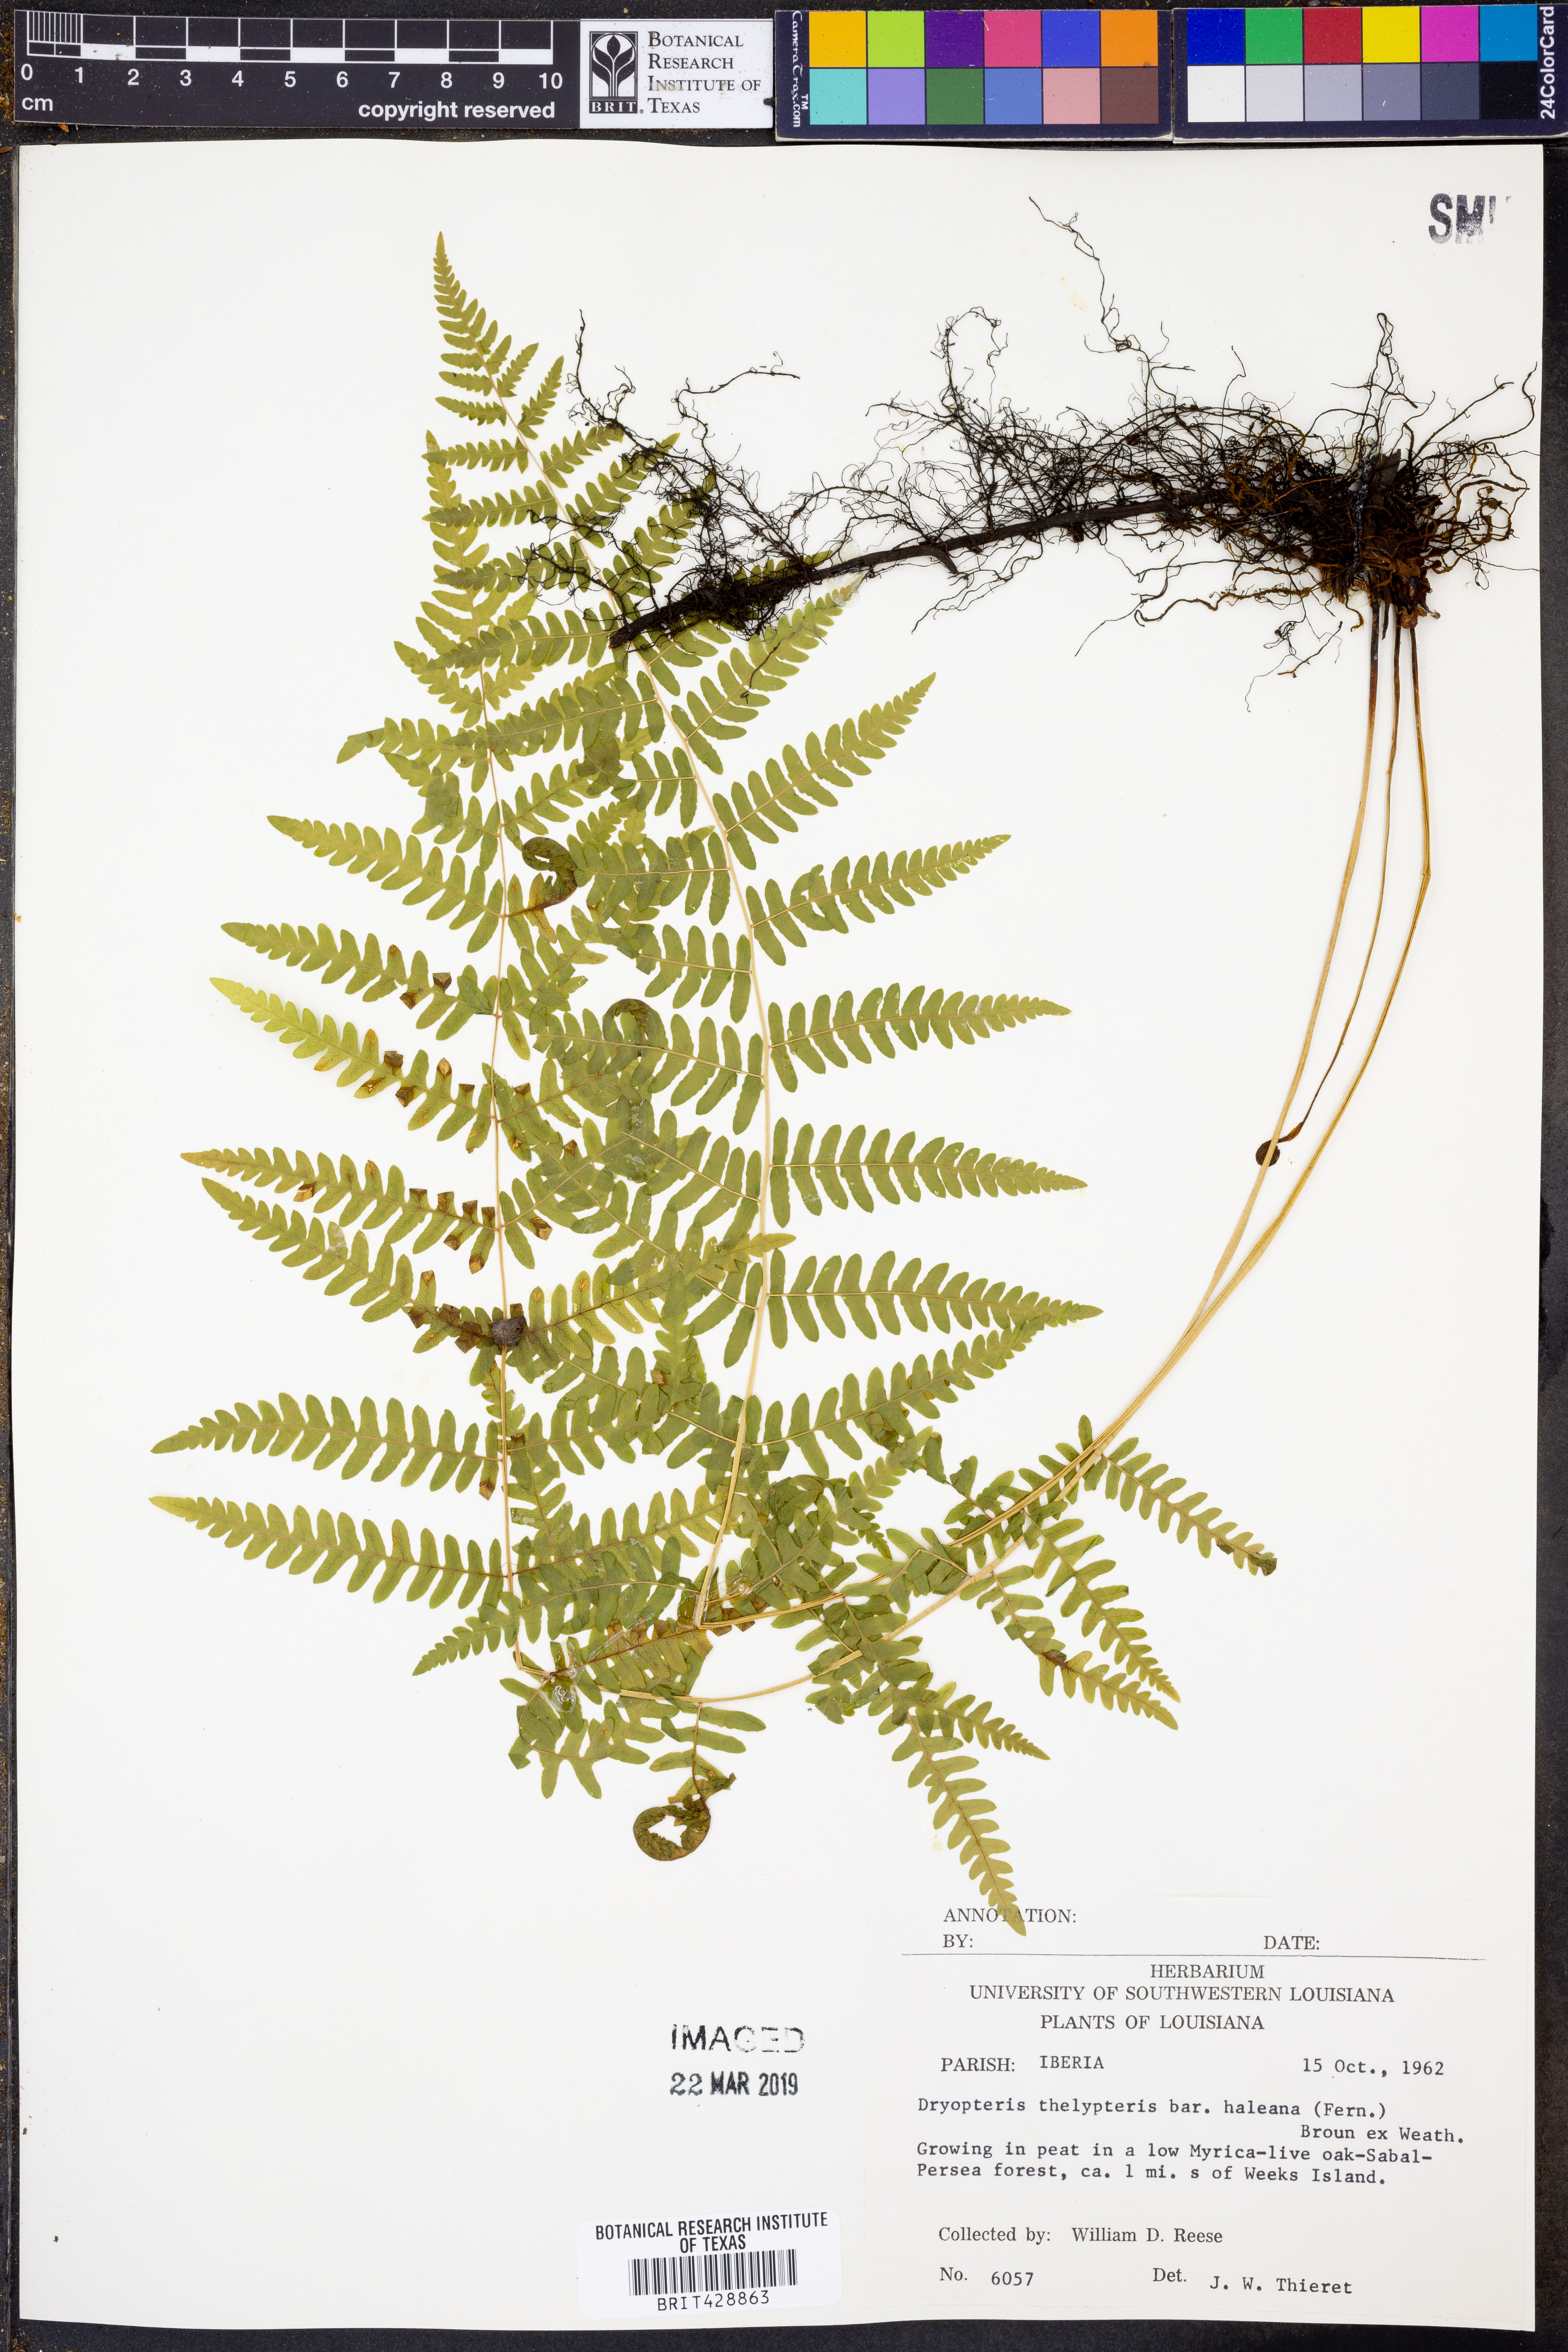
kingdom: Plantae
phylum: Tracheophyta
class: Polypodiopsida
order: Polypodiales
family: Thelypteridaceae
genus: Thelypteris
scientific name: Thelypteris palustris
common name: Marsh fern
